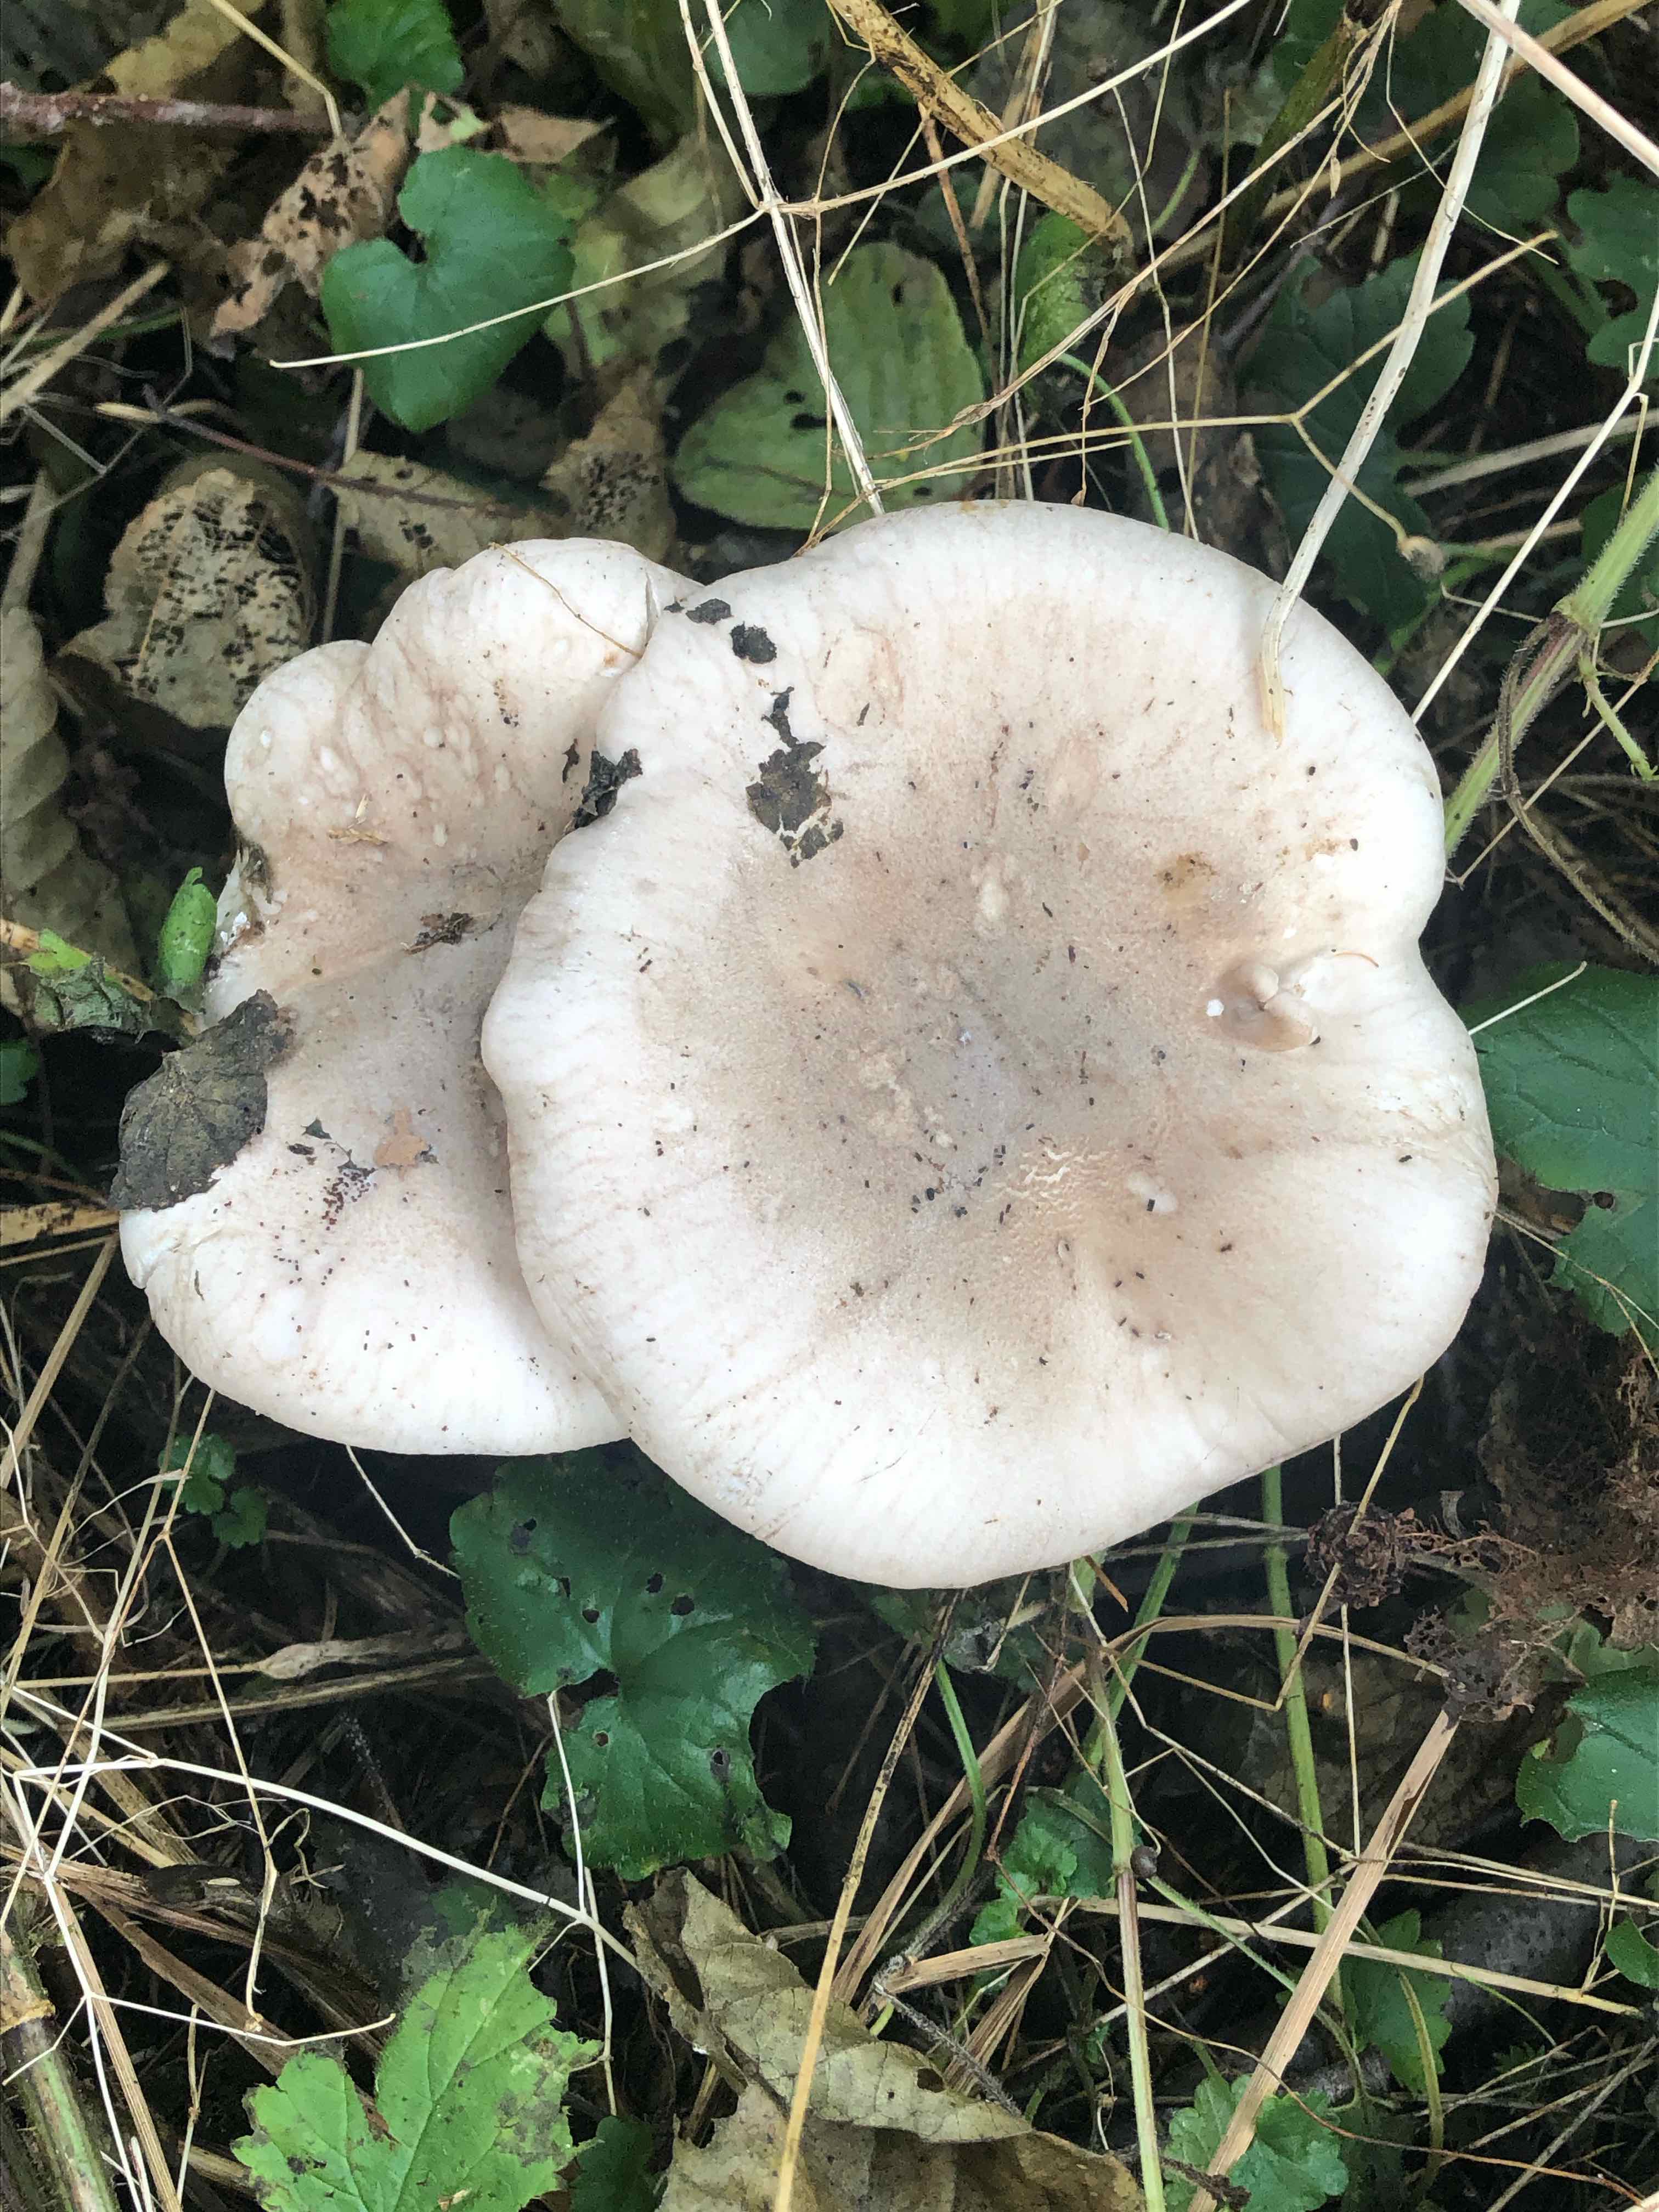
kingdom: Fungi
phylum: Basidiomycota
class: Agaricomycetes
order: Agaricales
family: Tricholomataceae
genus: Clitocybe
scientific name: Clitocybe nebularis
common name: tåge-tragthat
